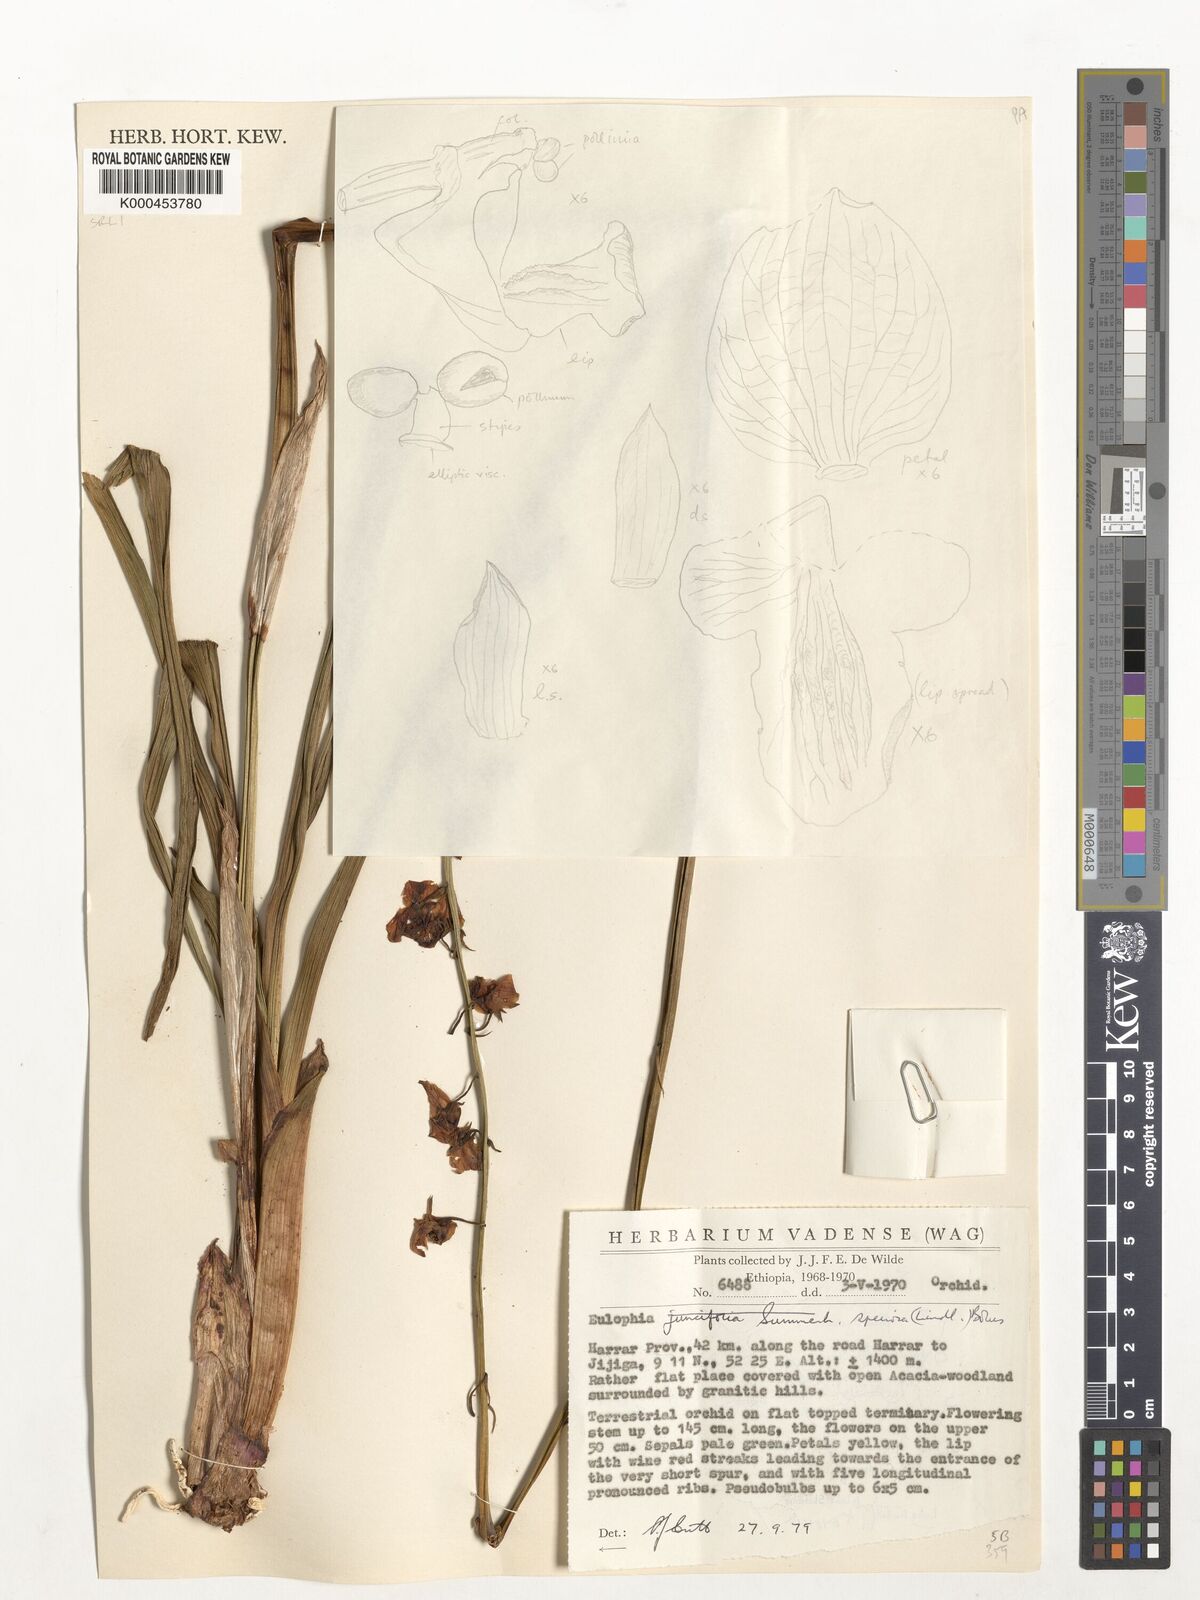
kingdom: Plantae
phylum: Tracheophyta
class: Liliopsida
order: Asparagales
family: Orchidaceae
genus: Eulophia
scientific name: Eulophia speciosa
